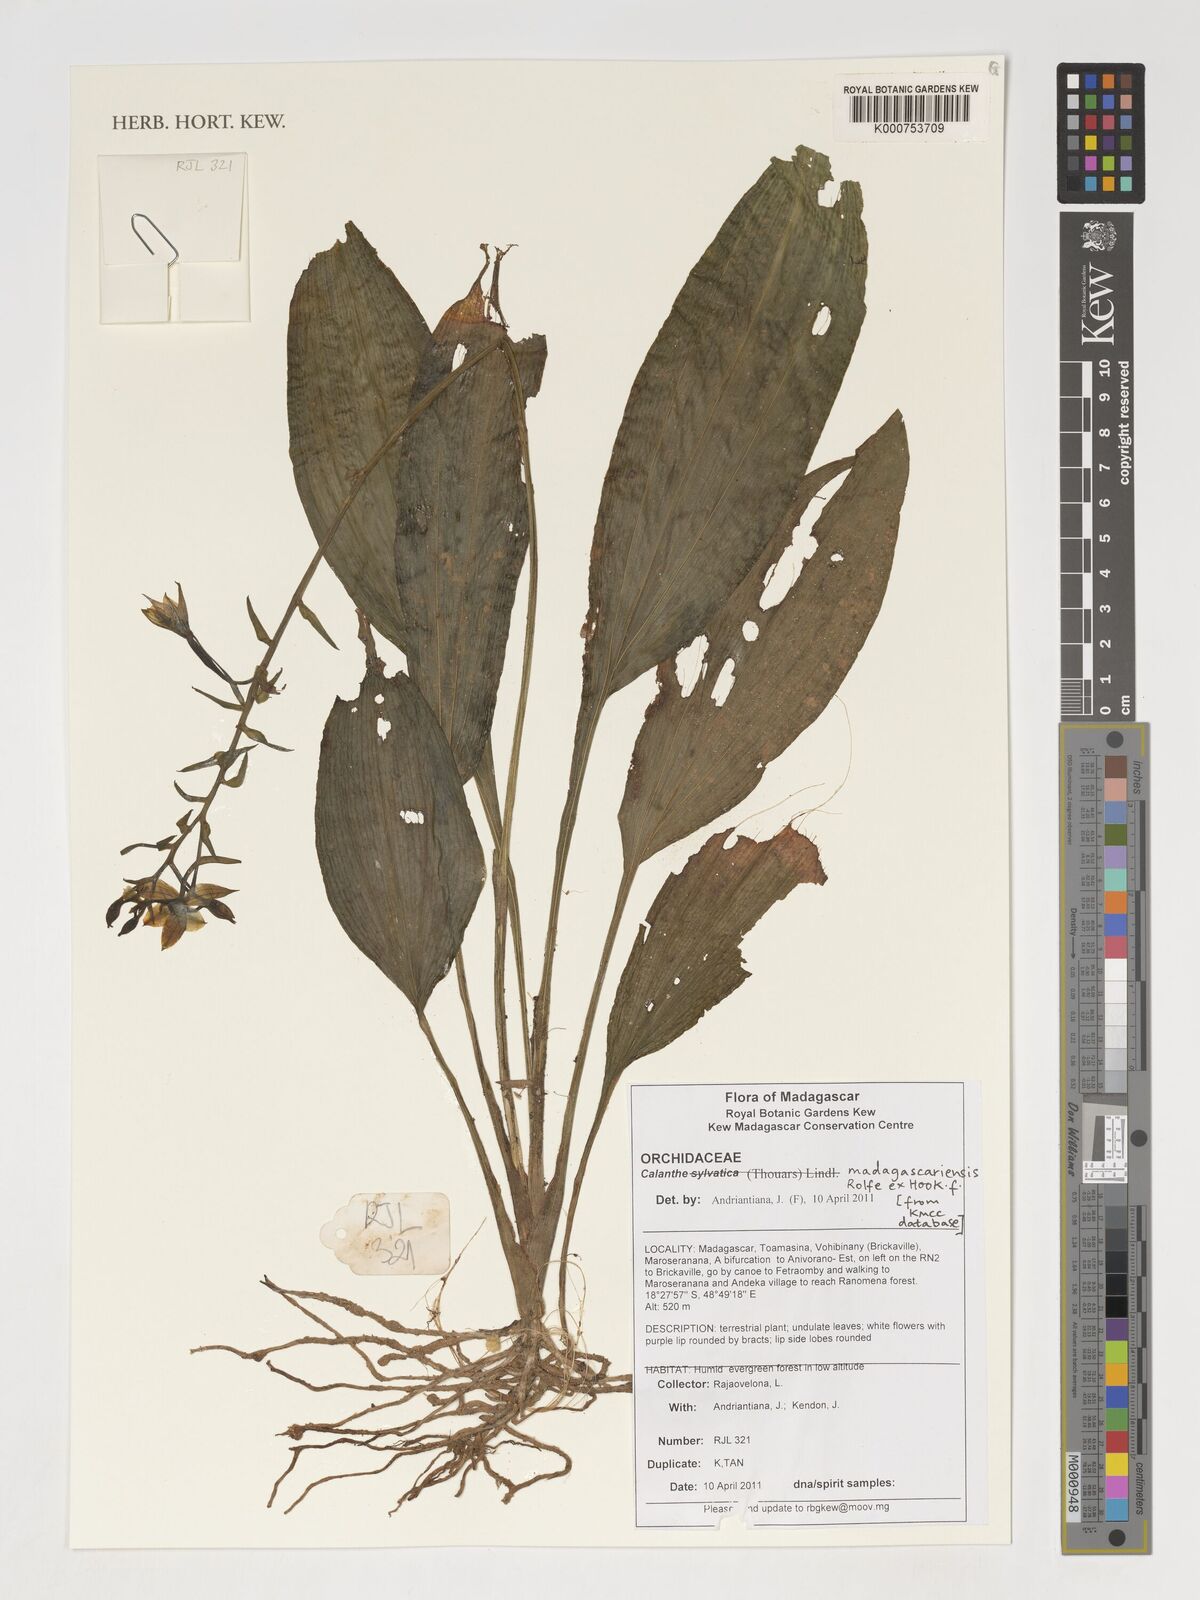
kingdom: Plantae
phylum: Tracheophyta
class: Liliopsida
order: Asparagales
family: Orchidaceae
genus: Calanthe
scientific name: Calanthe madagascariensis
